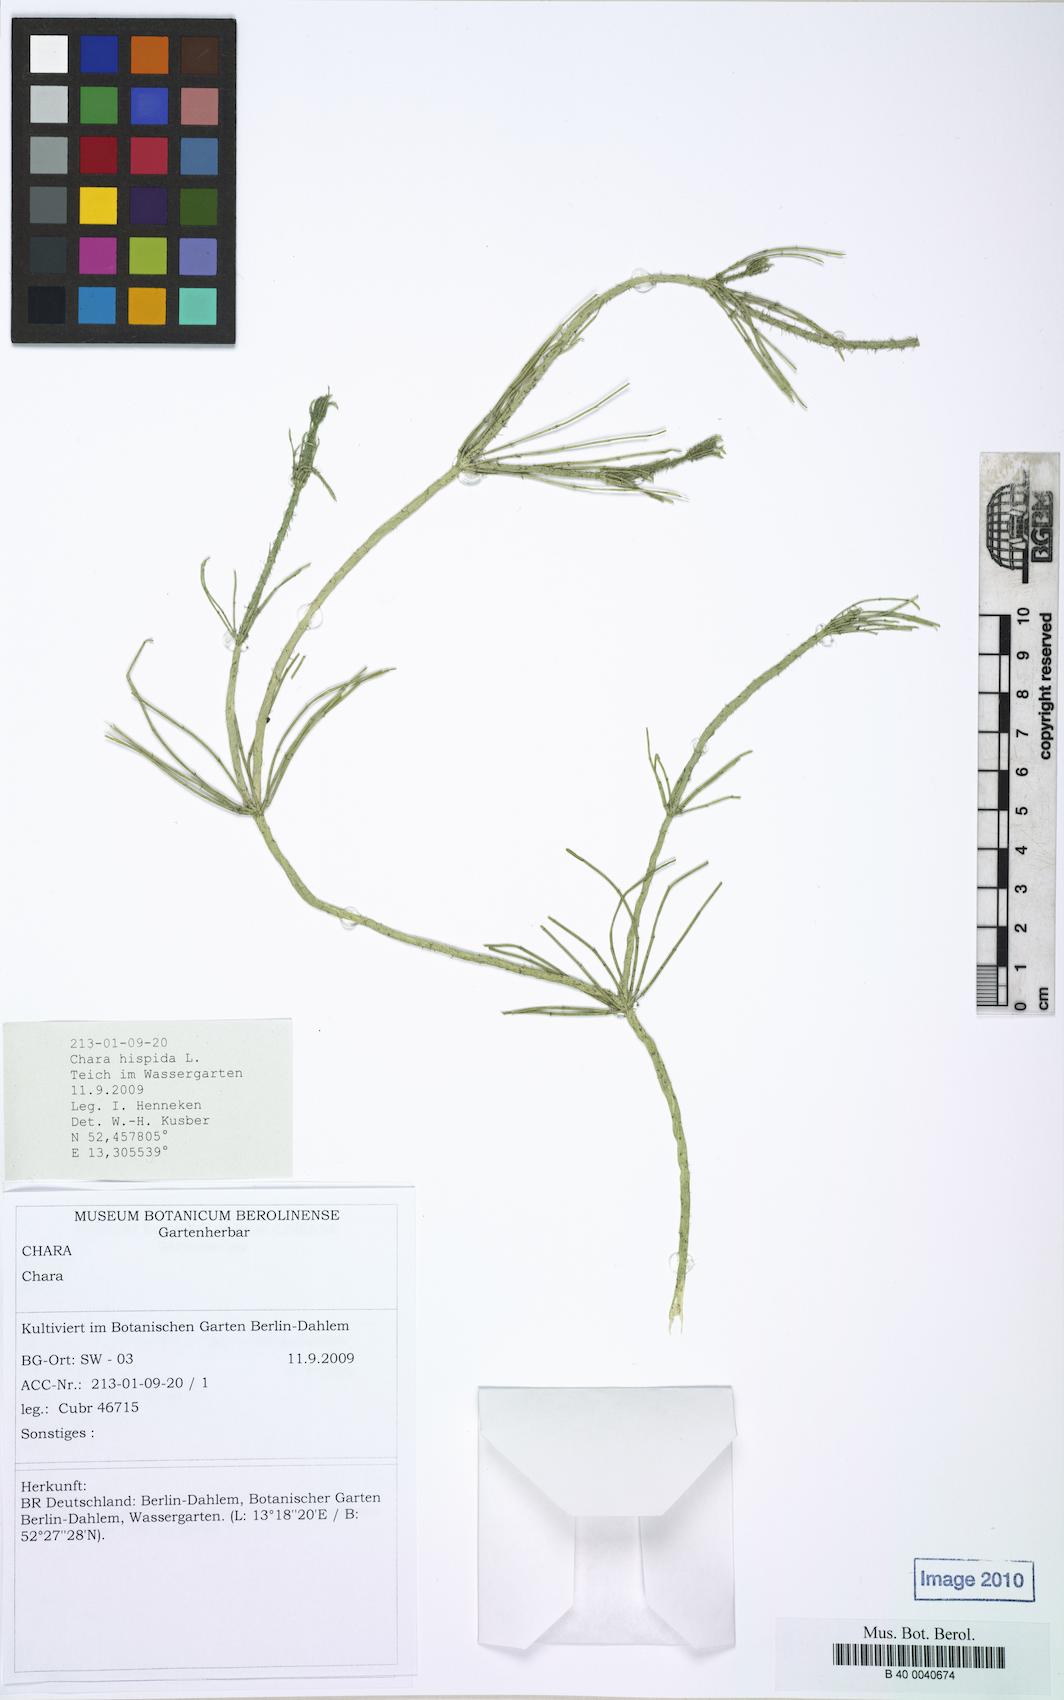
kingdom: Plantae
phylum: Charophyta
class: Charophyceae
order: Charales
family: Characeae
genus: Chara
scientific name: Chara hispida
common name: Bristly stonewort
